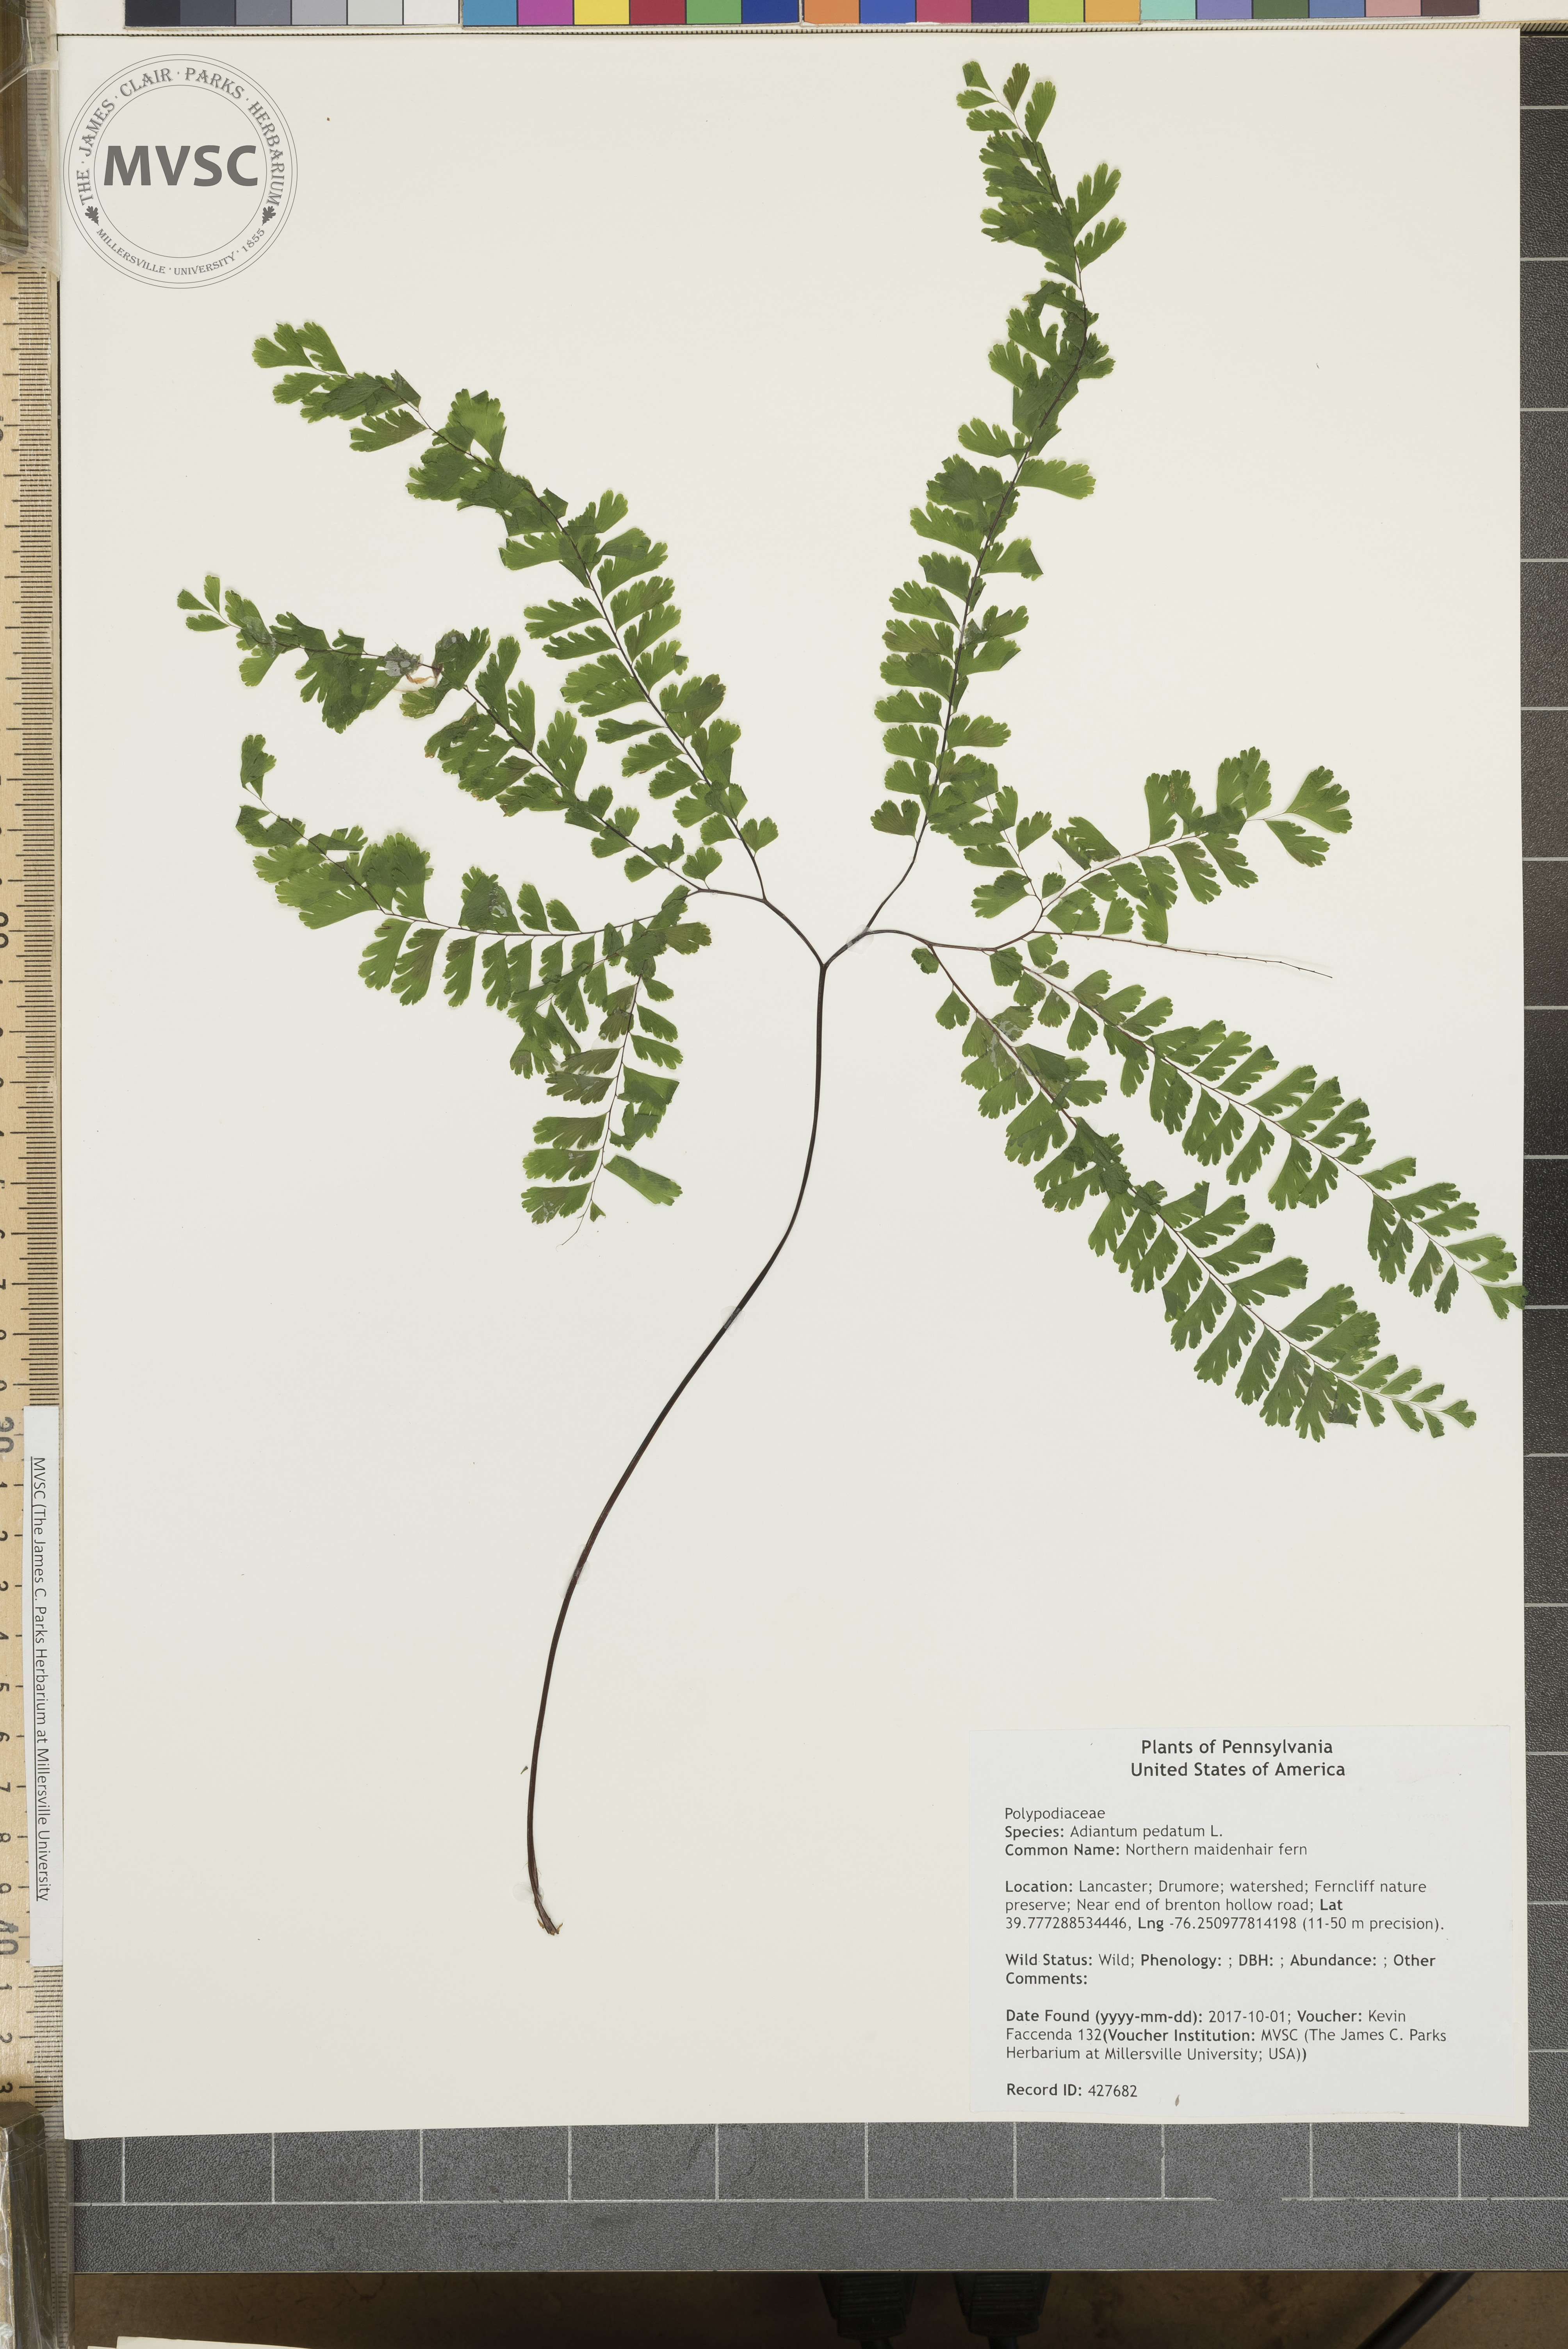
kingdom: Plantae
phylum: Tracheophyta
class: Polypodiopsida
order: Polypodiales
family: Pteridaceae
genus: Adiantum
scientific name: Adiantum pedatum
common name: Northern maidenhair fern
